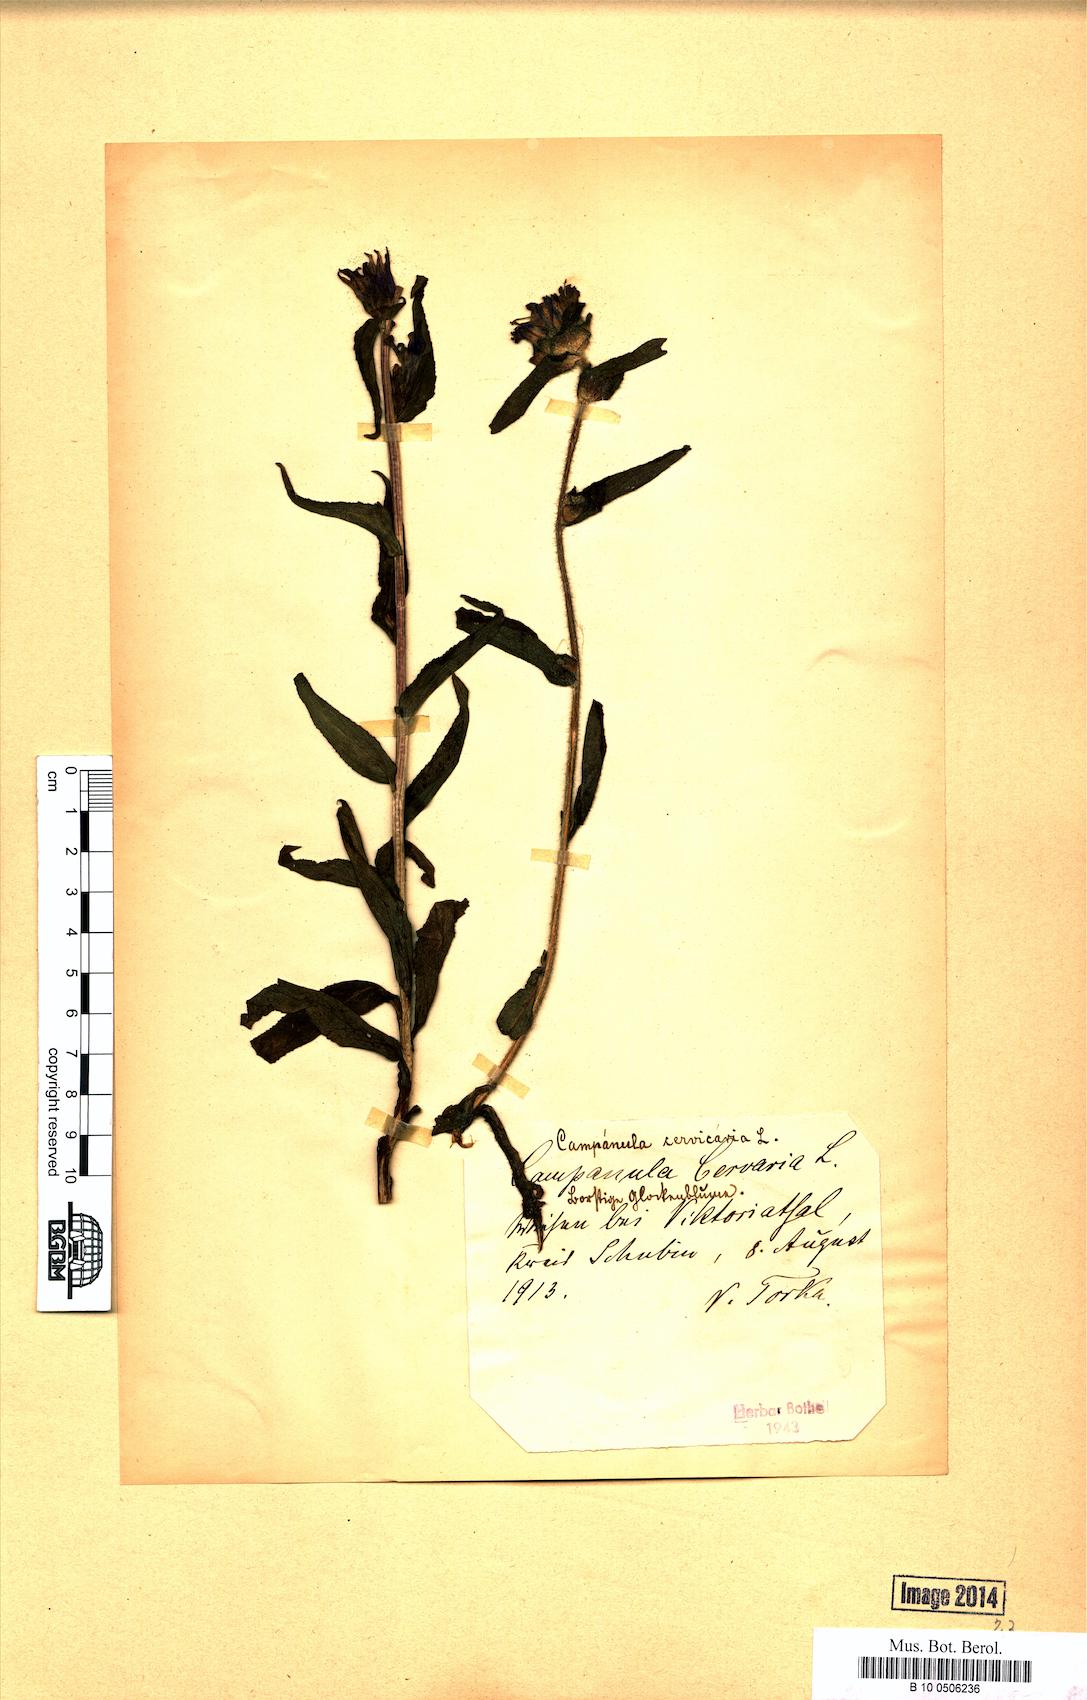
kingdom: Plantae
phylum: Tracheophyta
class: Magnoliopsida
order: Asterales
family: Campanulaceae
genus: Campanula
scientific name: Campanula cervicaria
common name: Bristly bellflower
